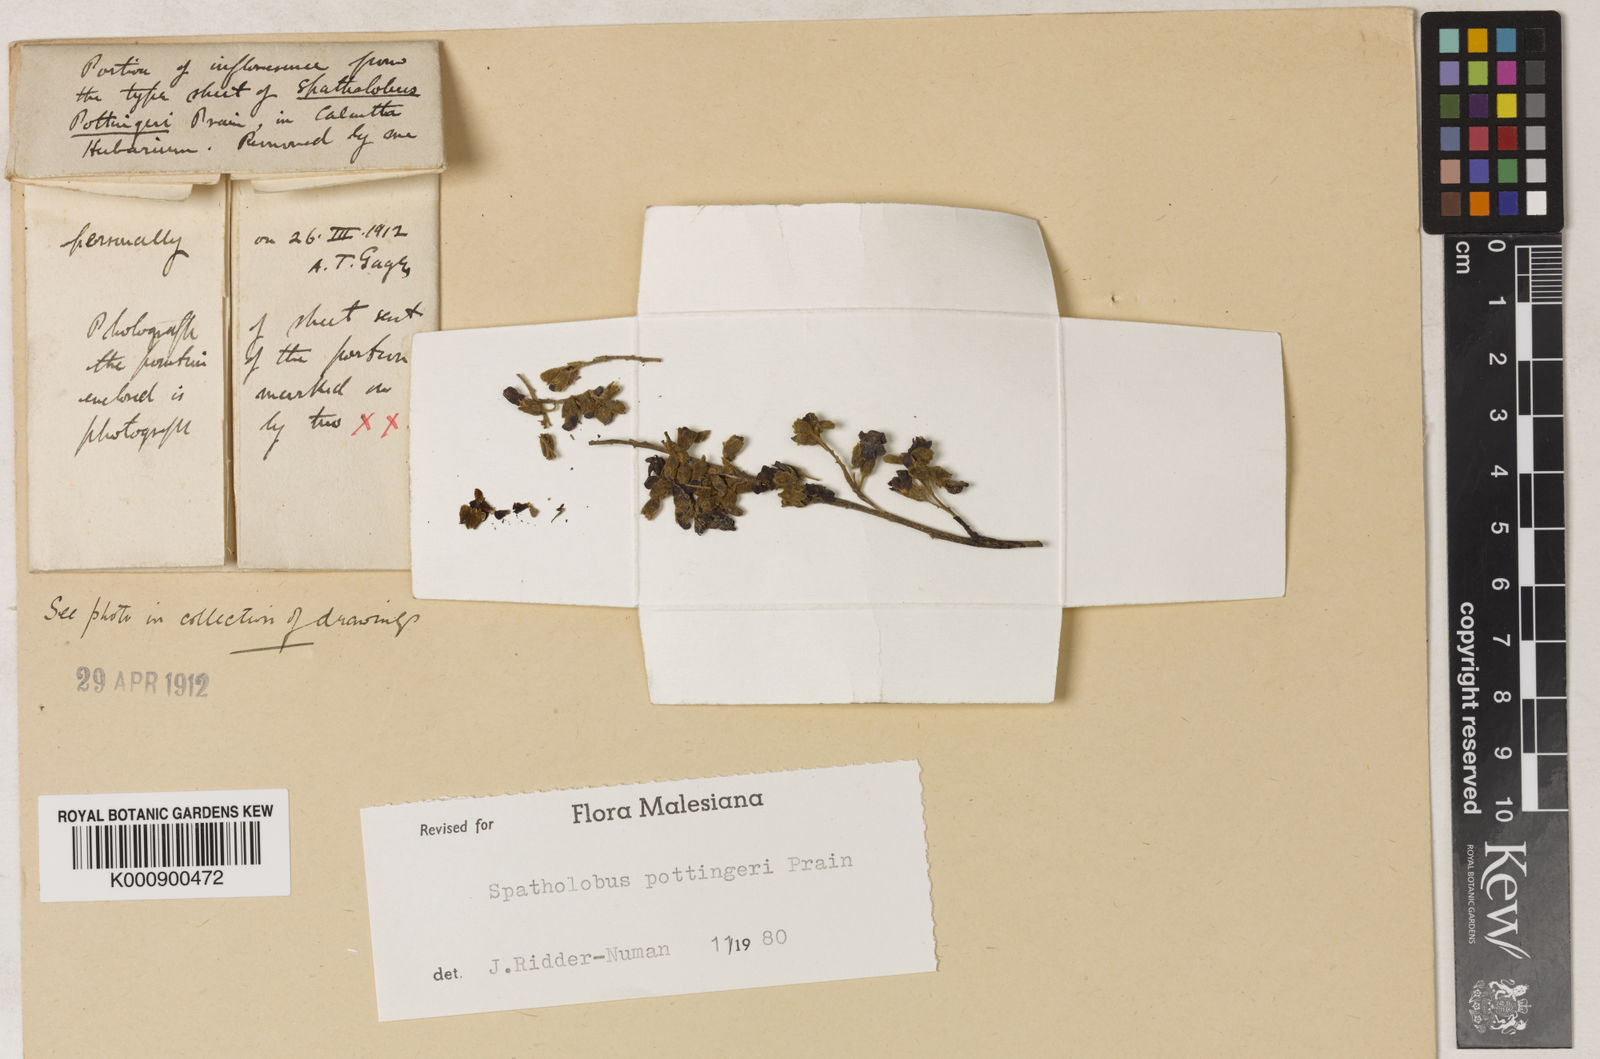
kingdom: Plantae
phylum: Tracheophyta
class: Magnoliopsida
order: Fabales
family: Fabaceae
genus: Spatholobus
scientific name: Spatholobus pottingeri
